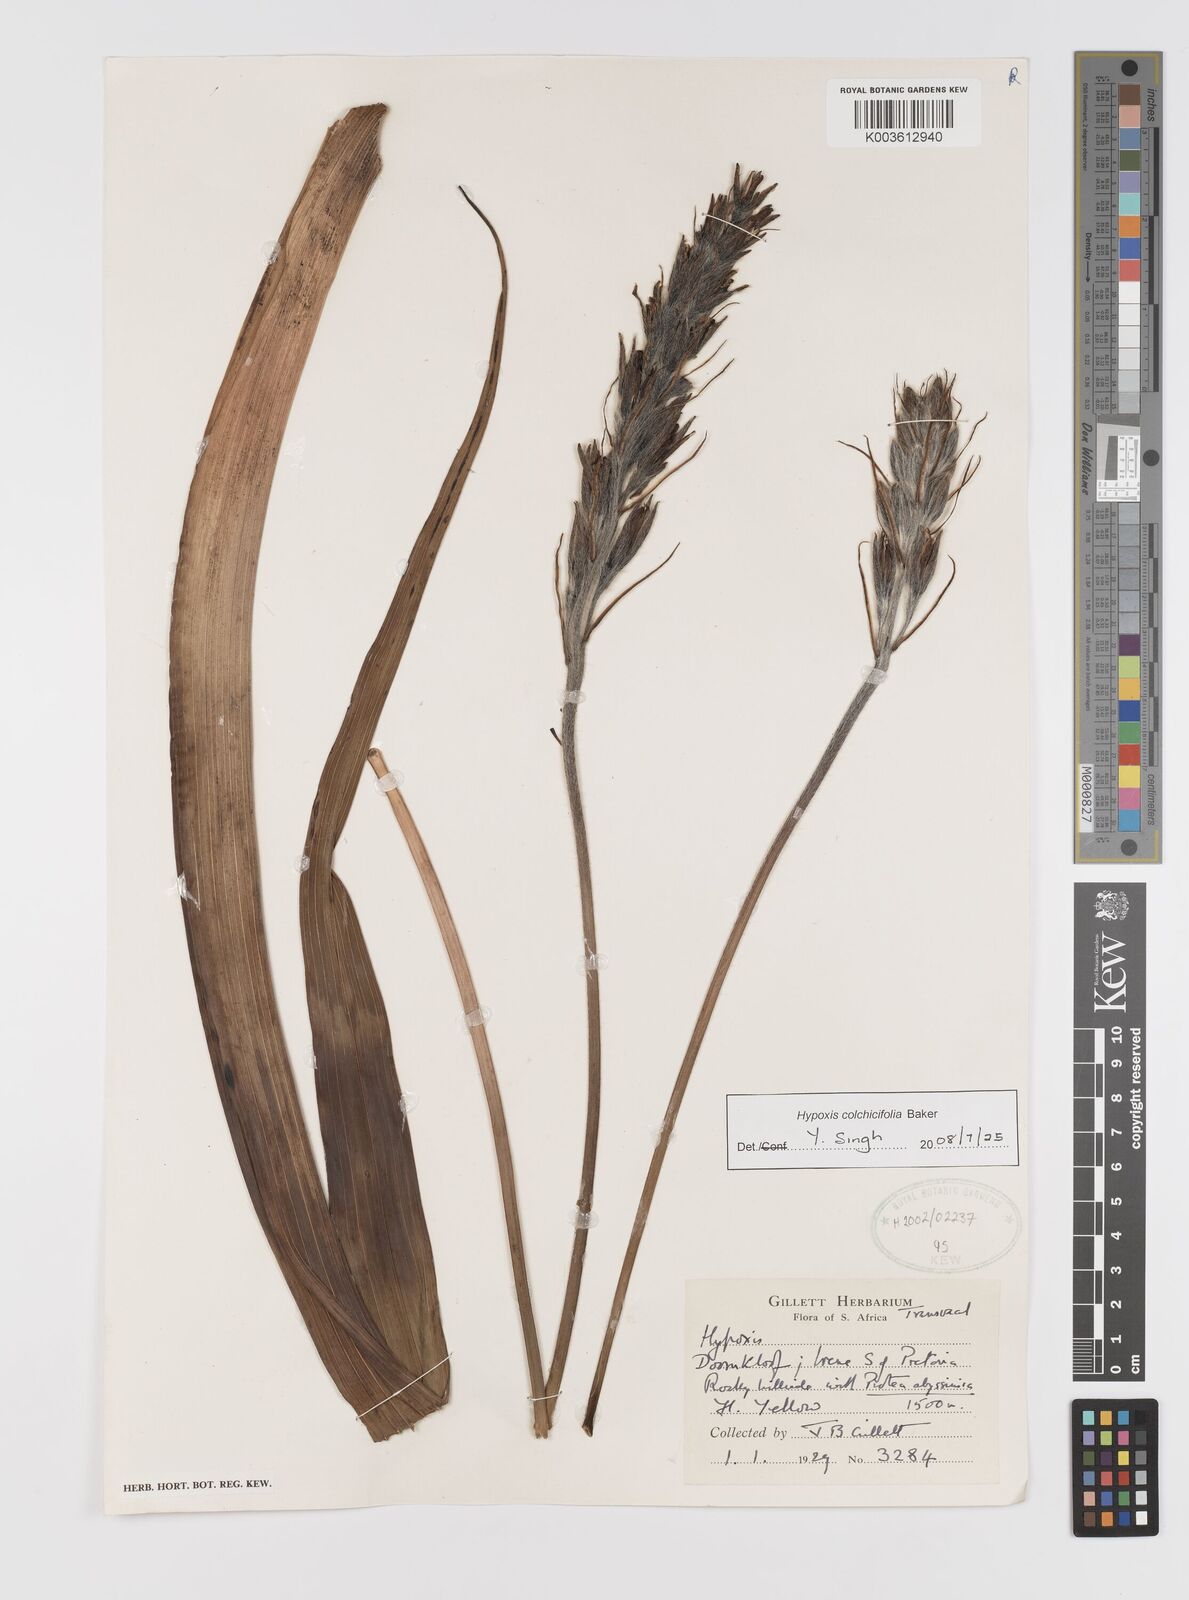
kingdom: Plantae
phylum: Tracheophyta
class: Liliopsida
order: Asparagales
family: Hypoxidaceae
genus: Hypoxis
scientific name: Hypoxis colchicifolia
